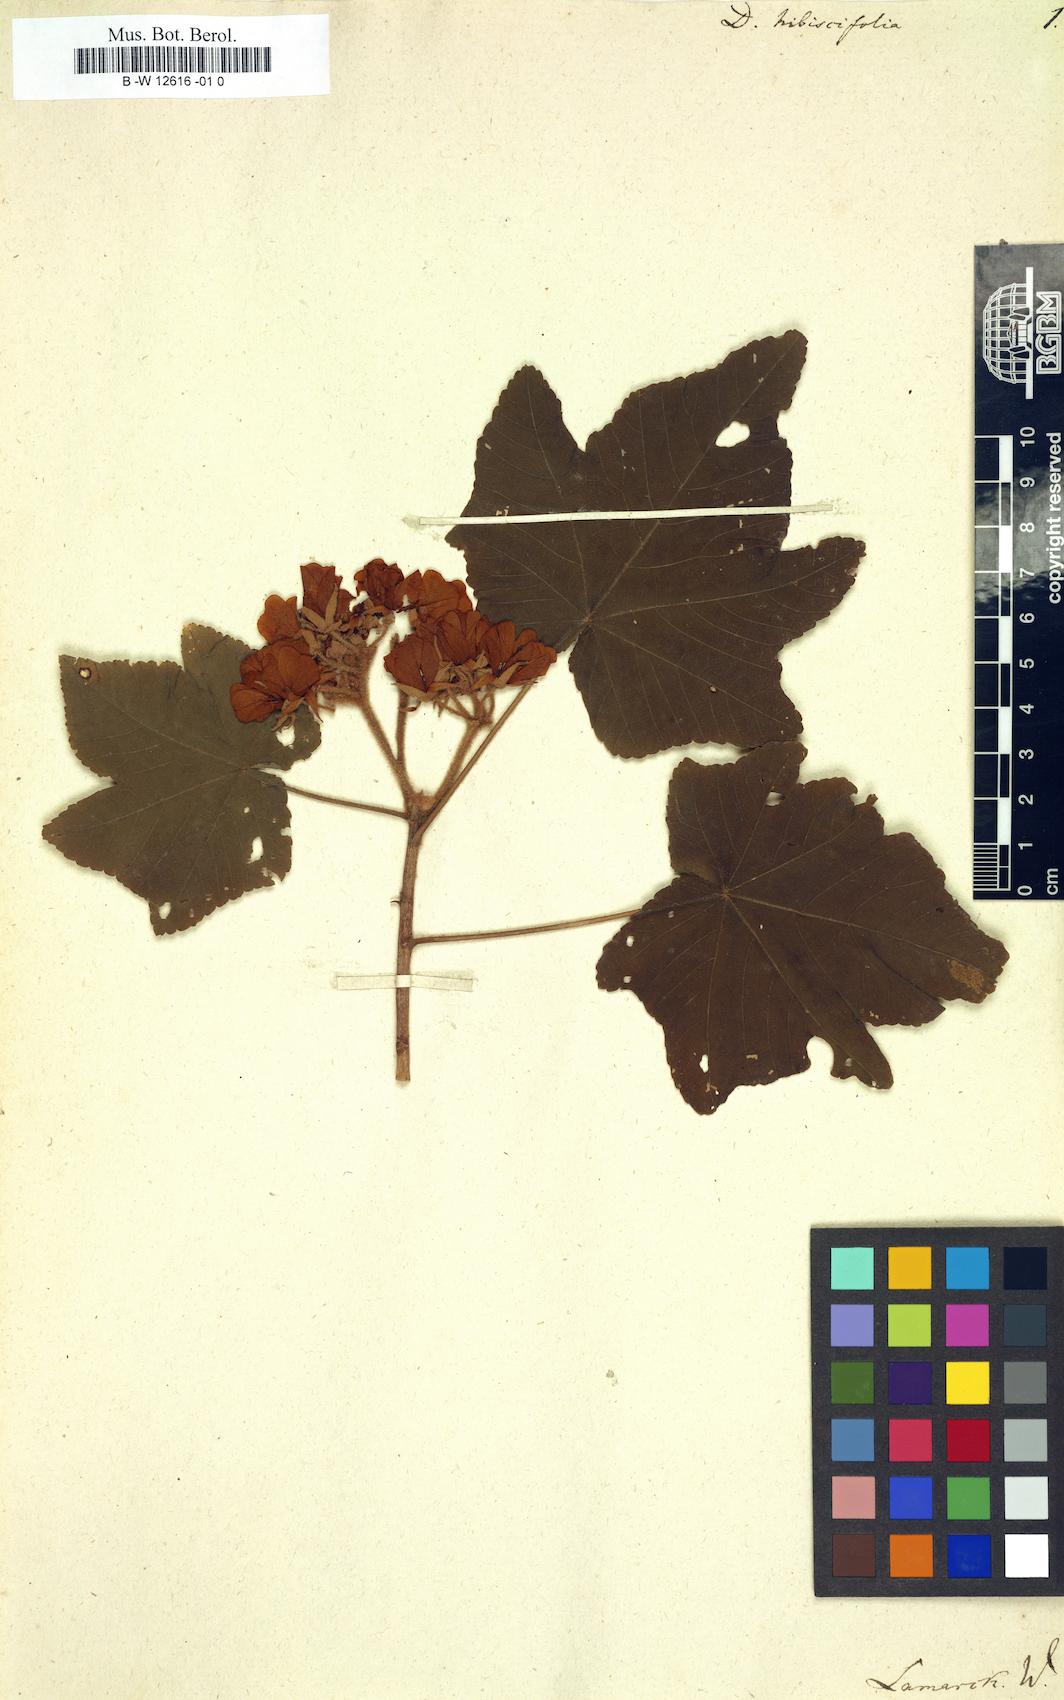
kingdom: Plantae
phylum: Tracheophyta
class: Magnoliopsida
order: Malvales
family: Malvaceae
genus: Dombeya
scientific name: Dombeya
